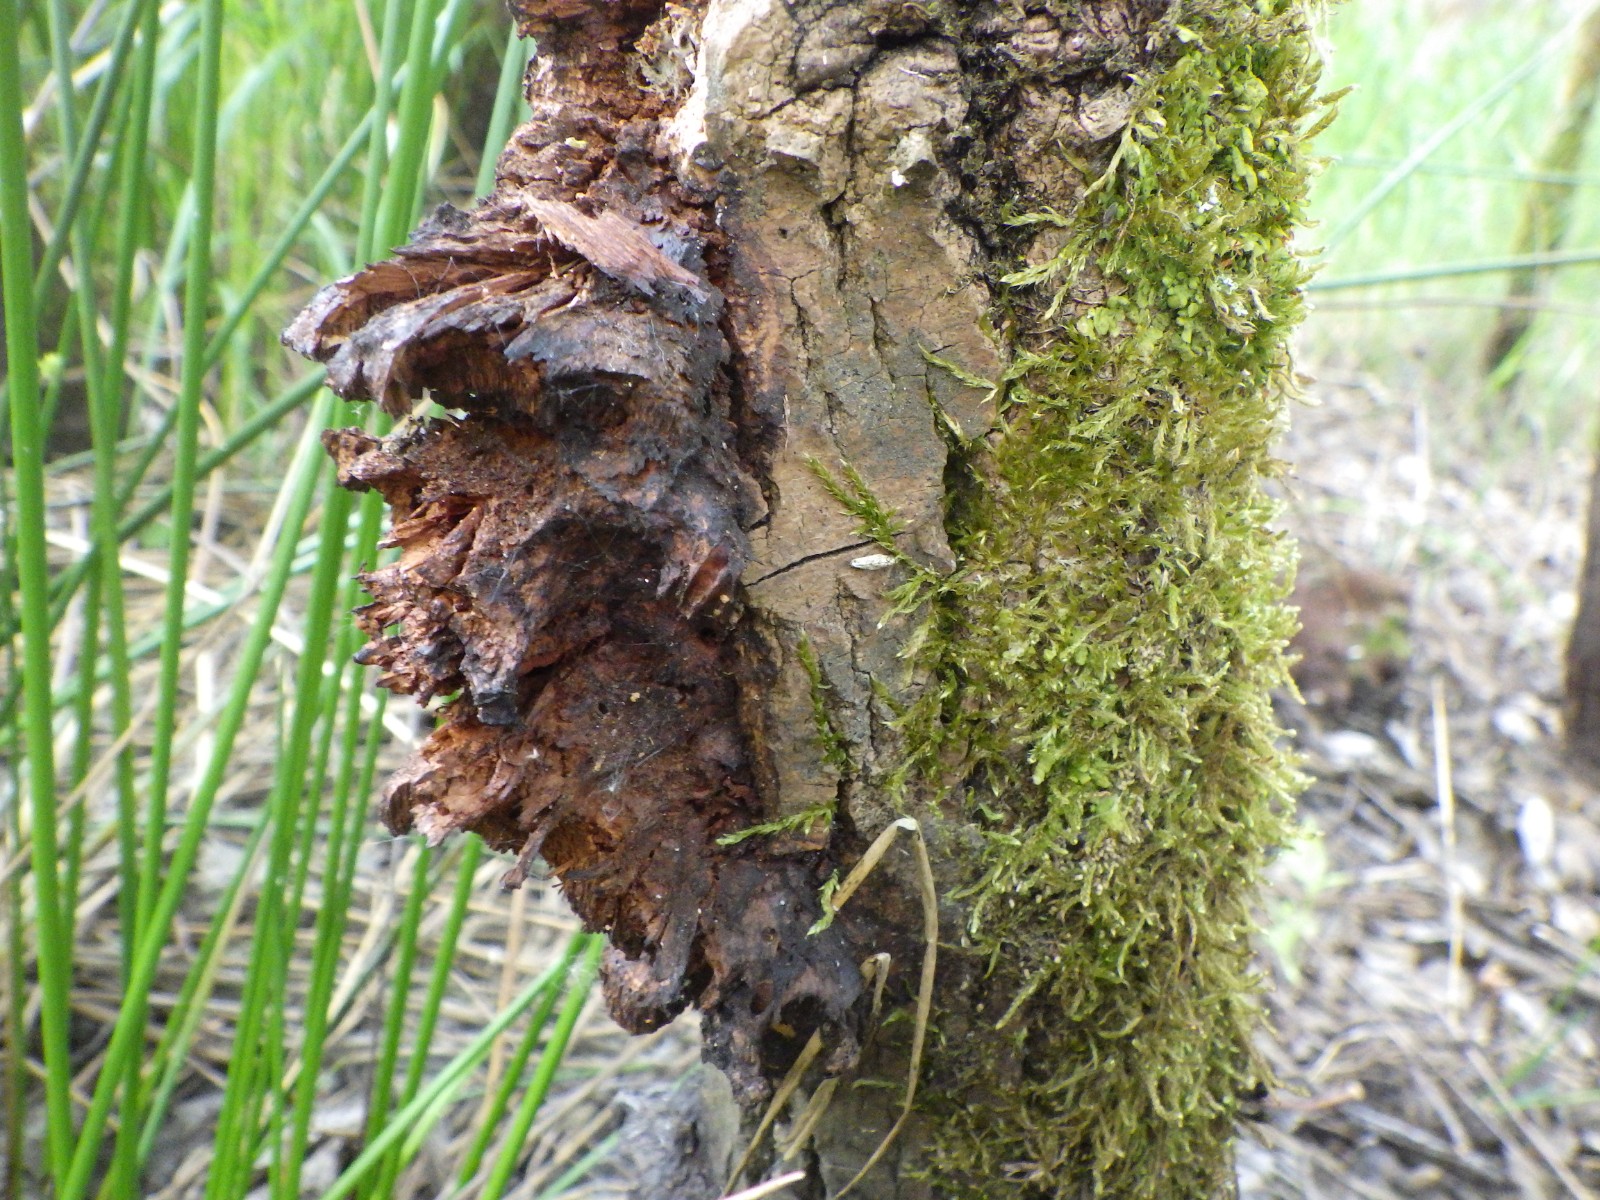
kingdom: Fungi
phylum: Basidiomycota
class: Agaricomycetes
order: Hymenochaetales
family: Hymenochaetaceae
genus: Inocutis
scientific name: Inocutis rheades
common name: ræve-spejlporesvamp
